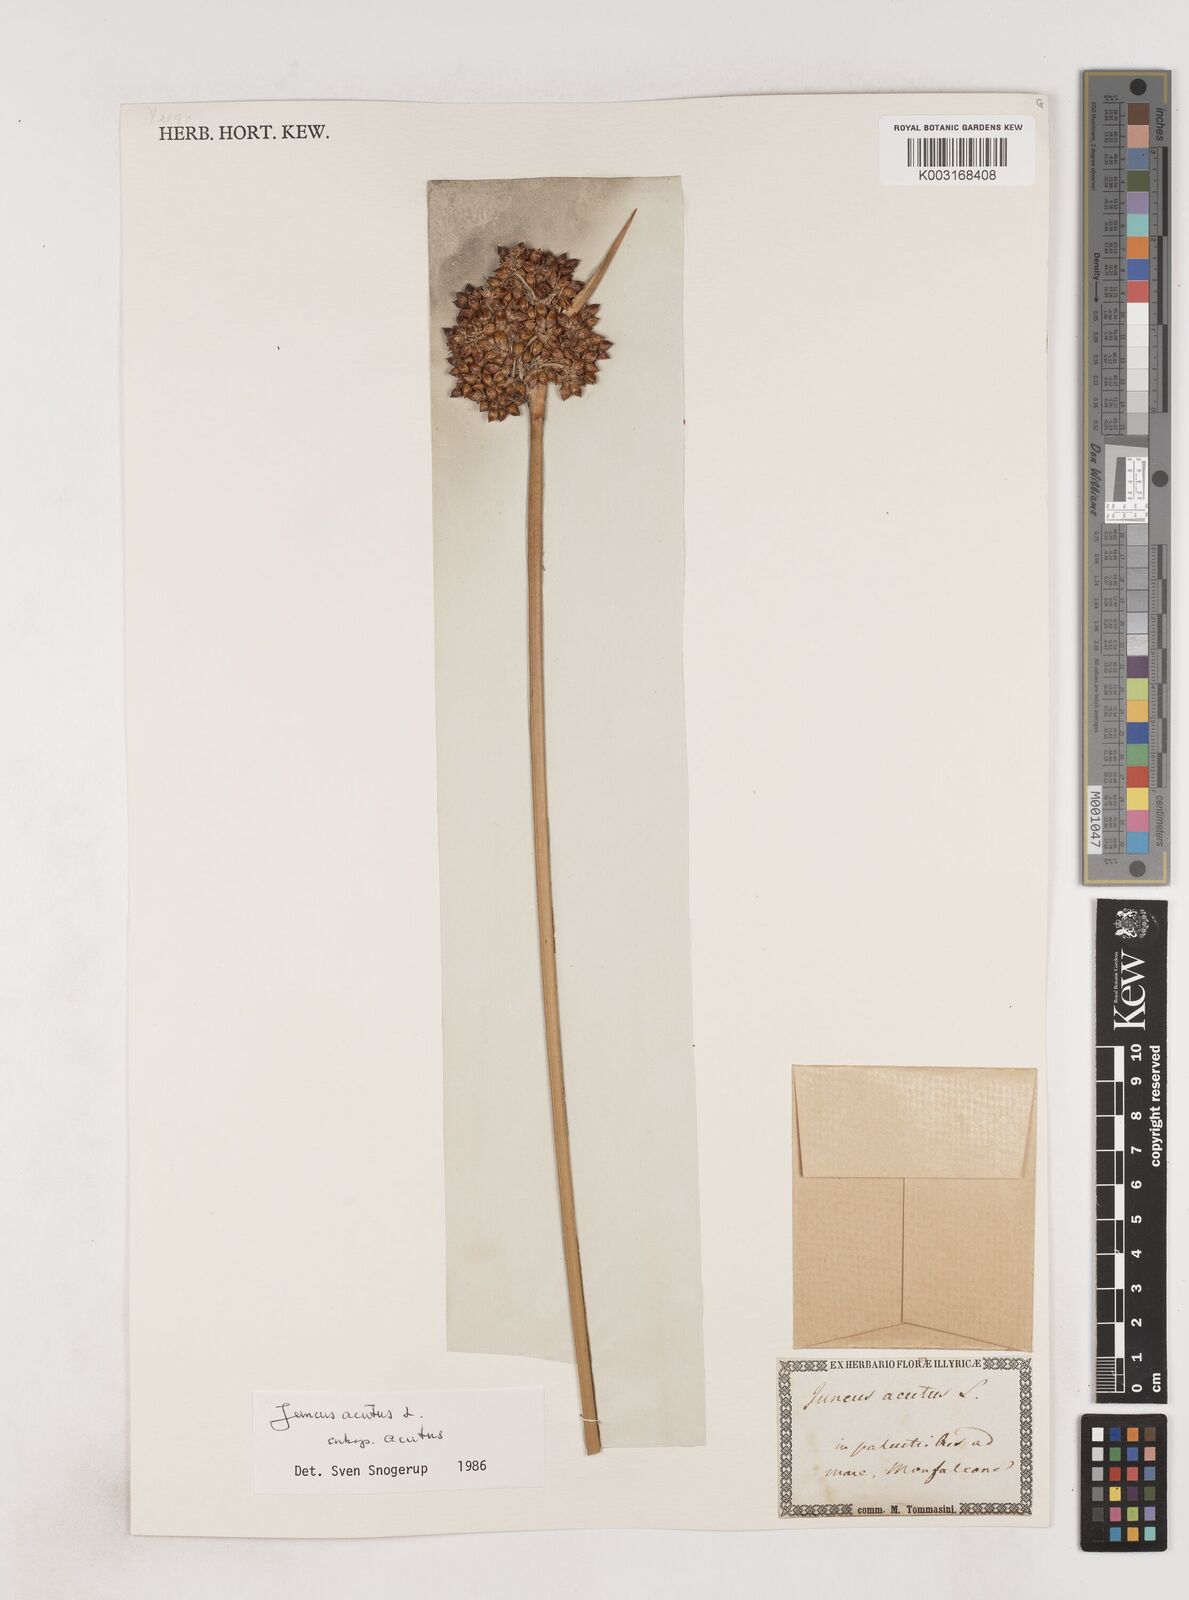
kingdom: Plantae
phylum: Tracheophyta
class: Liliopsida
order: Poales
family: Juncaceae
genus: Juncus
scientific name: Juncus acutus
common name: Sharp rush
